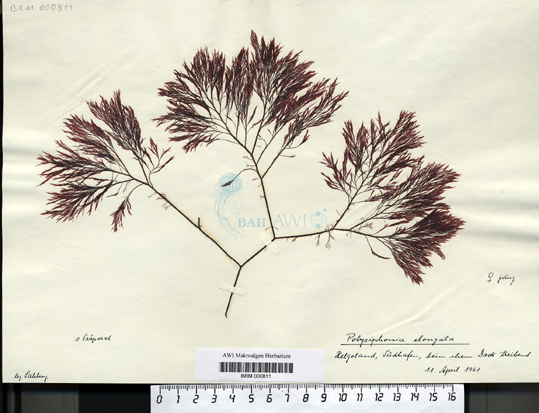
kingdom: Plantae
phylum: Rhodophyta
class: Florideophyceae
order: Ceramiales
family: Rhodomelaceae
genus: Vertebrata
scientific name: Vertebrata spec
